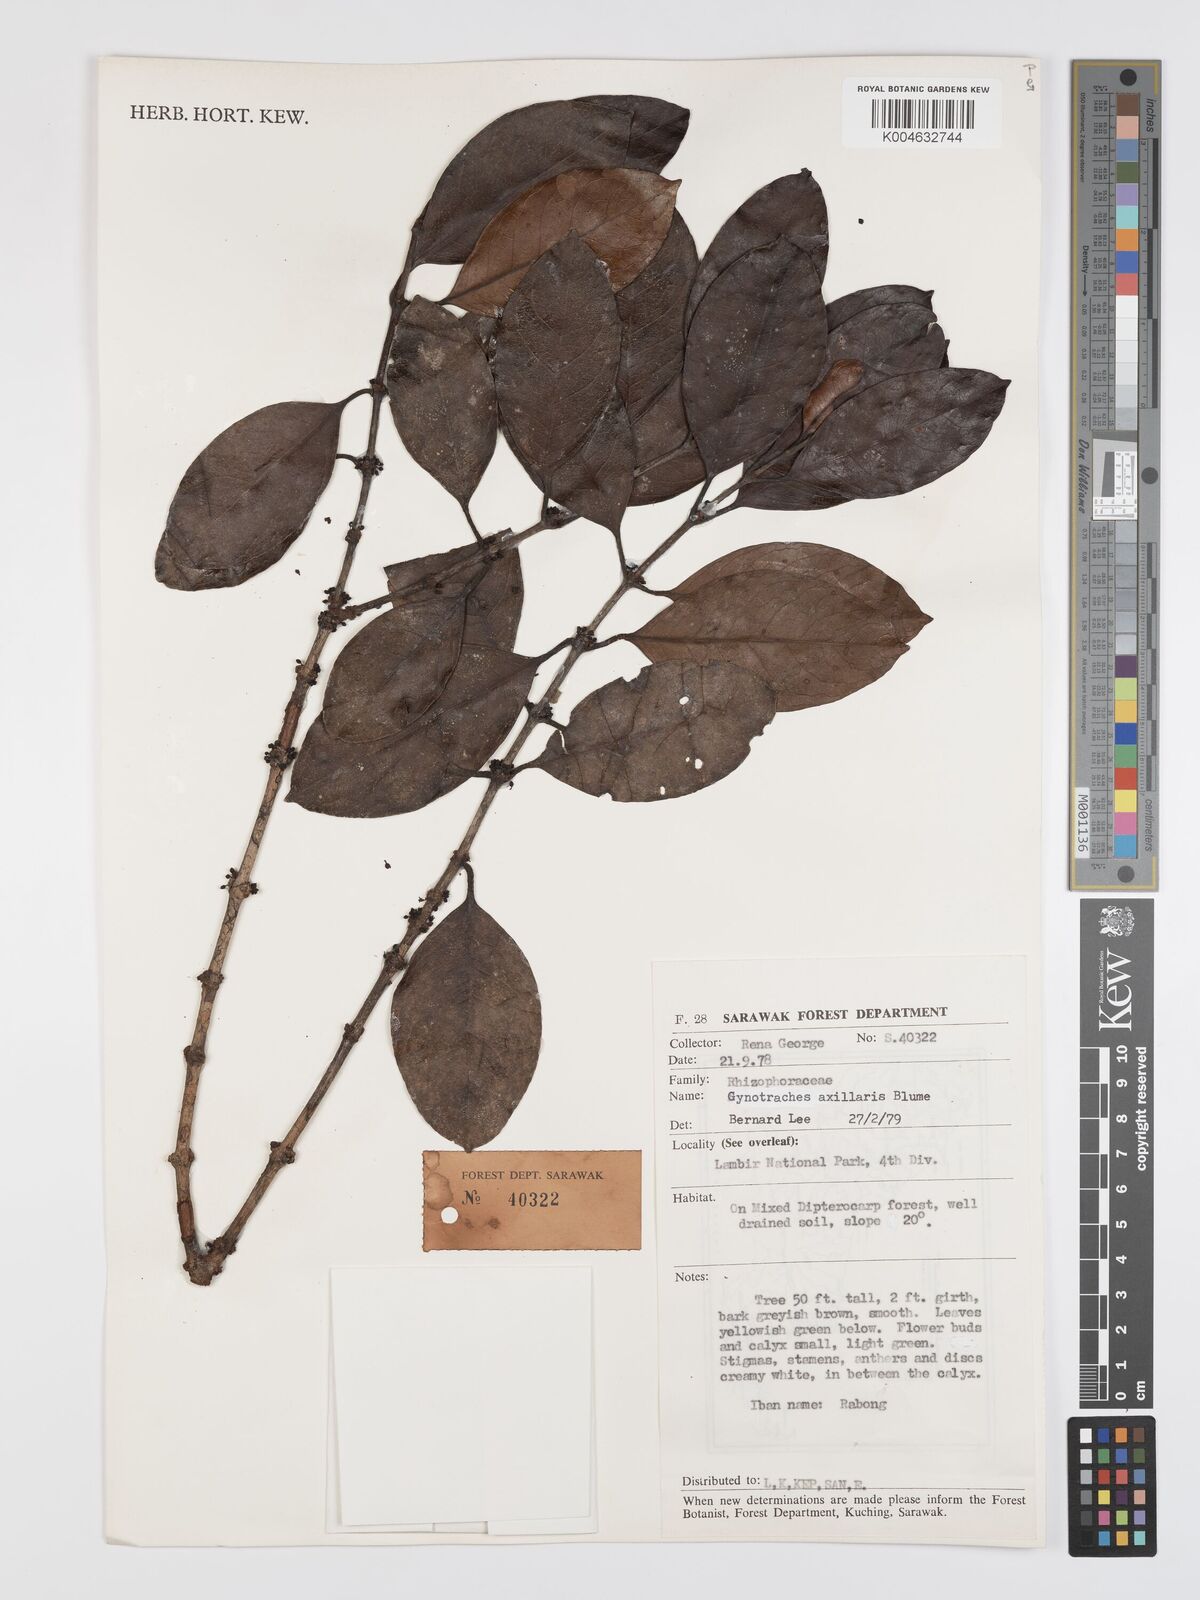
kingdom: Plantae
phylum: Tracheophyta
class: Magnoliopsida
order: Malpighiales
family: Rhizophoraceae
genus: Gynotroches
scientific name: Gynotroches axillaris
